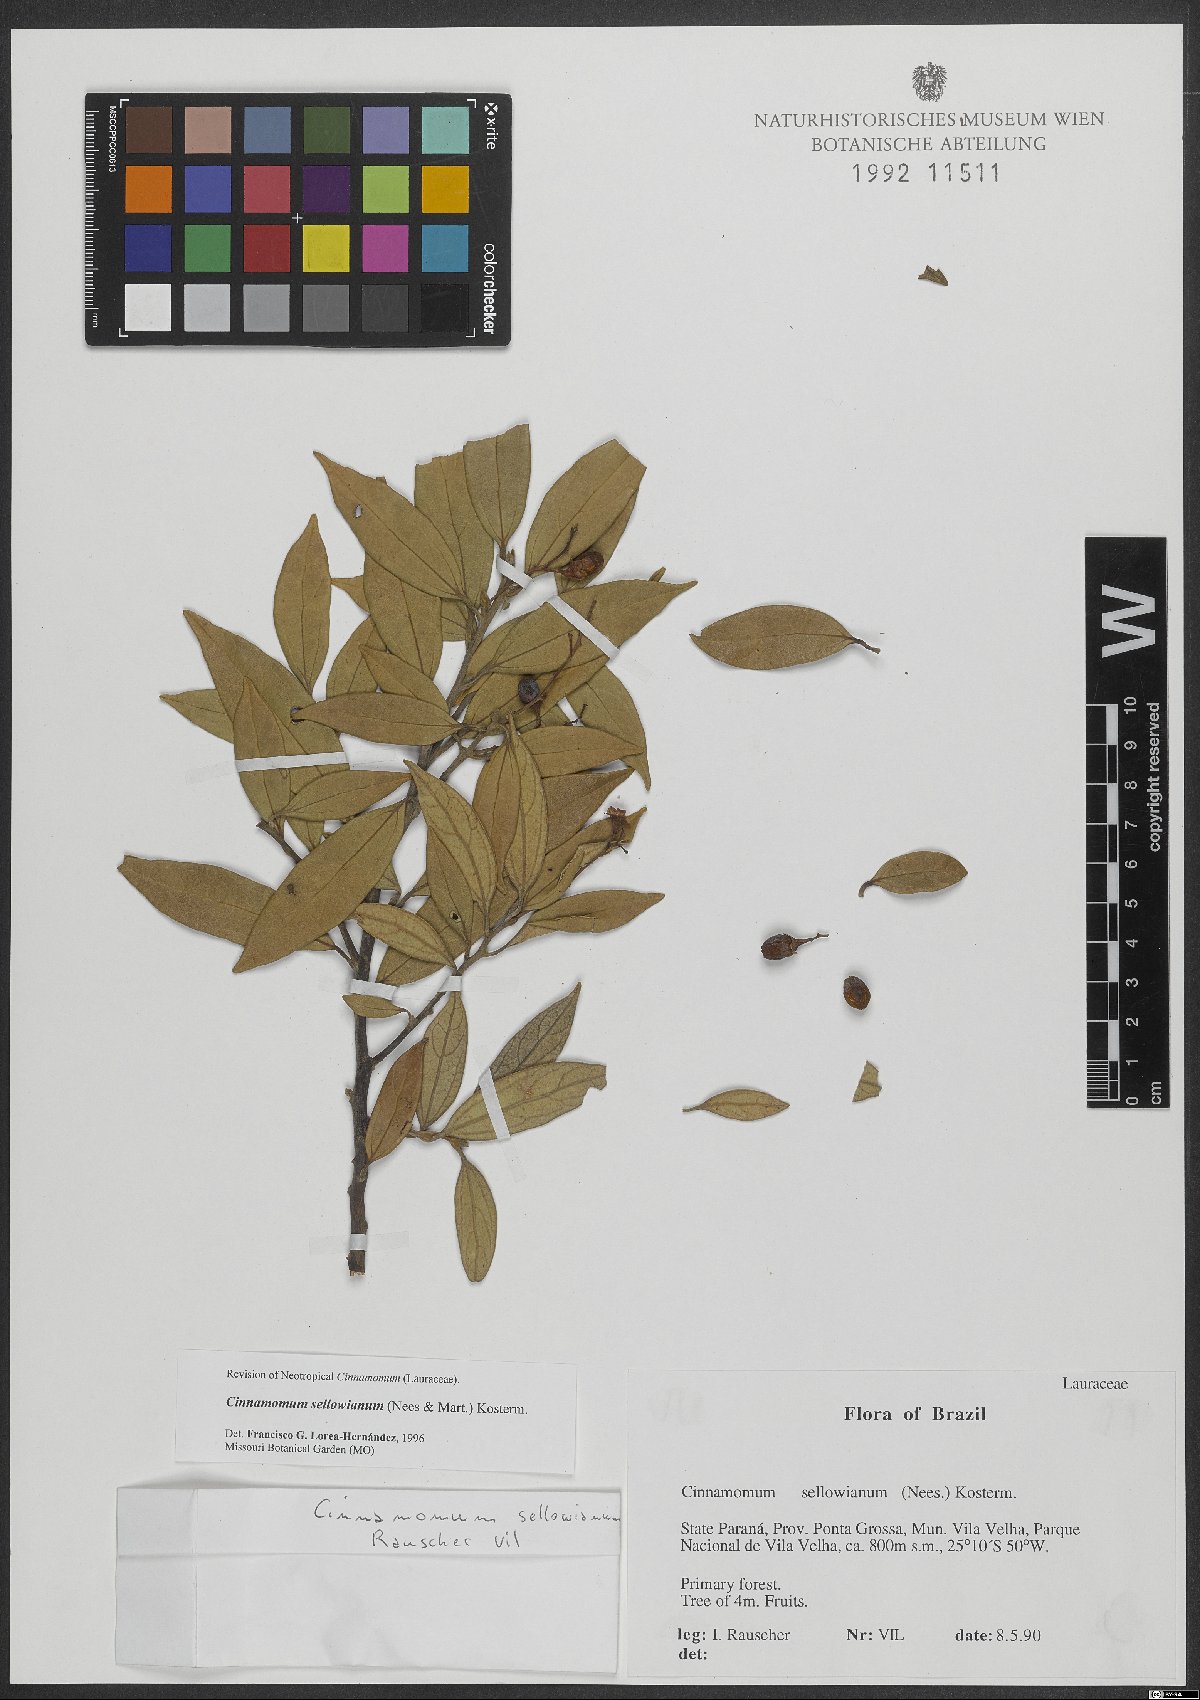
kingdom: Plantae
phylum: Tracheophyta
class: Magnoliopsida
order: Laurales
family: Lauraceae
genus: Aiouea
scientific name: Aiouea sellowiana
